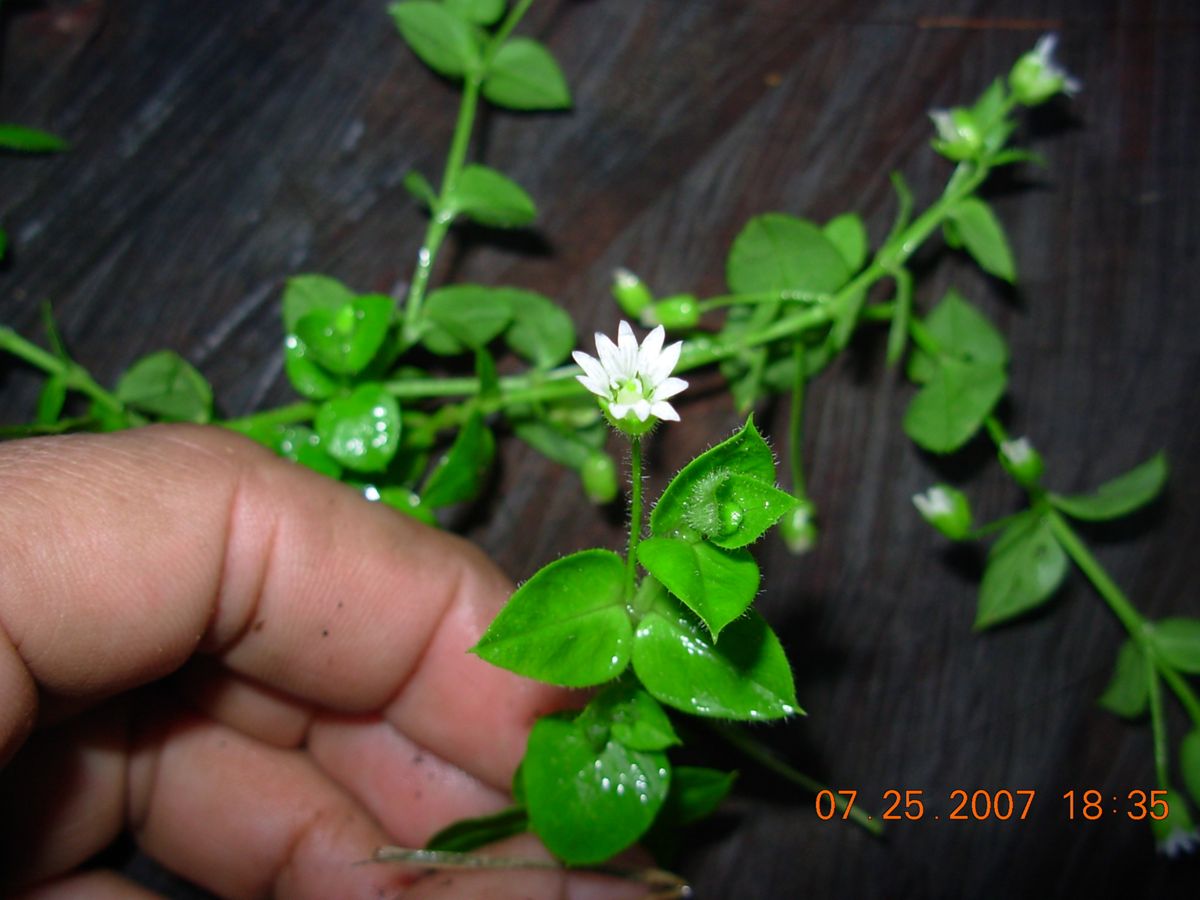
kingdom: Plantae
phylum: Tracheophyta
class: Magnoliopsida
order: Caryophyllales
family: Caryophyllaceae
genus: Stellaria
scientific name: Stellaria ovata
